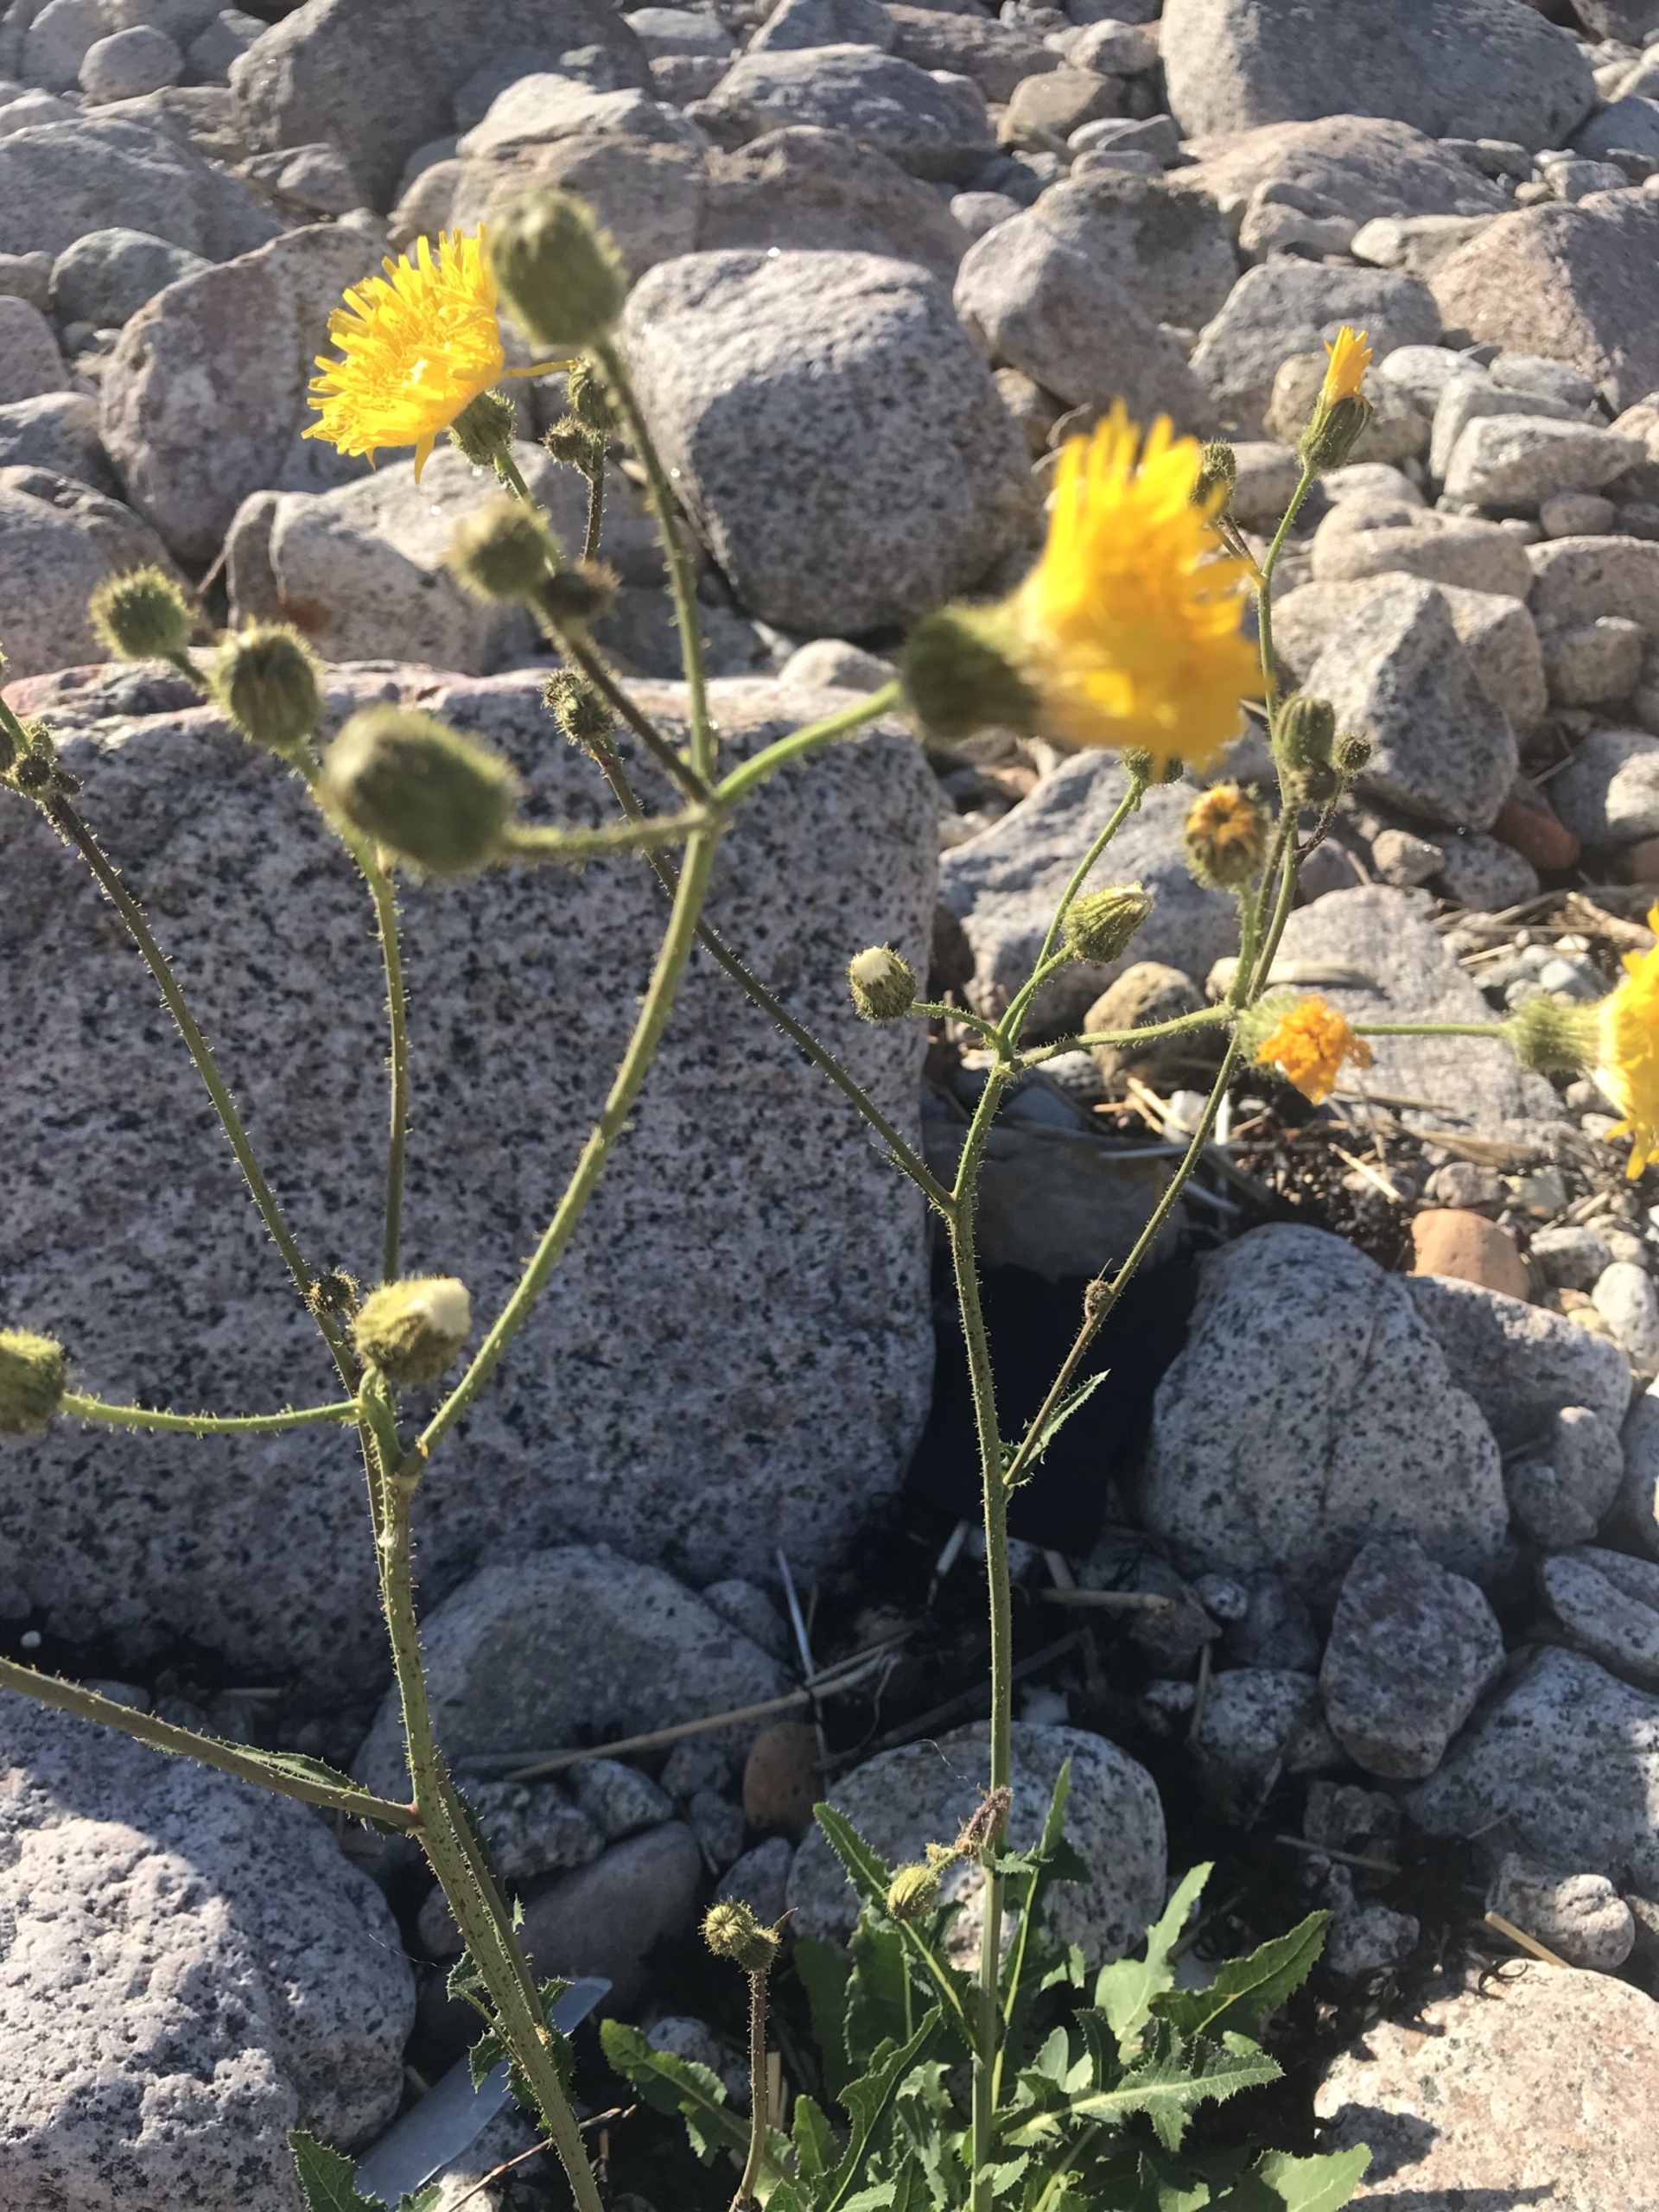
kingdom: Plantae
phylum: Tracheophyta
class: Magnoliopsida
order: Asterales
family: Asteraceae
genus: Sonchus
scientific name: Sonchus arvensis
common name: Ager-svinemælk
